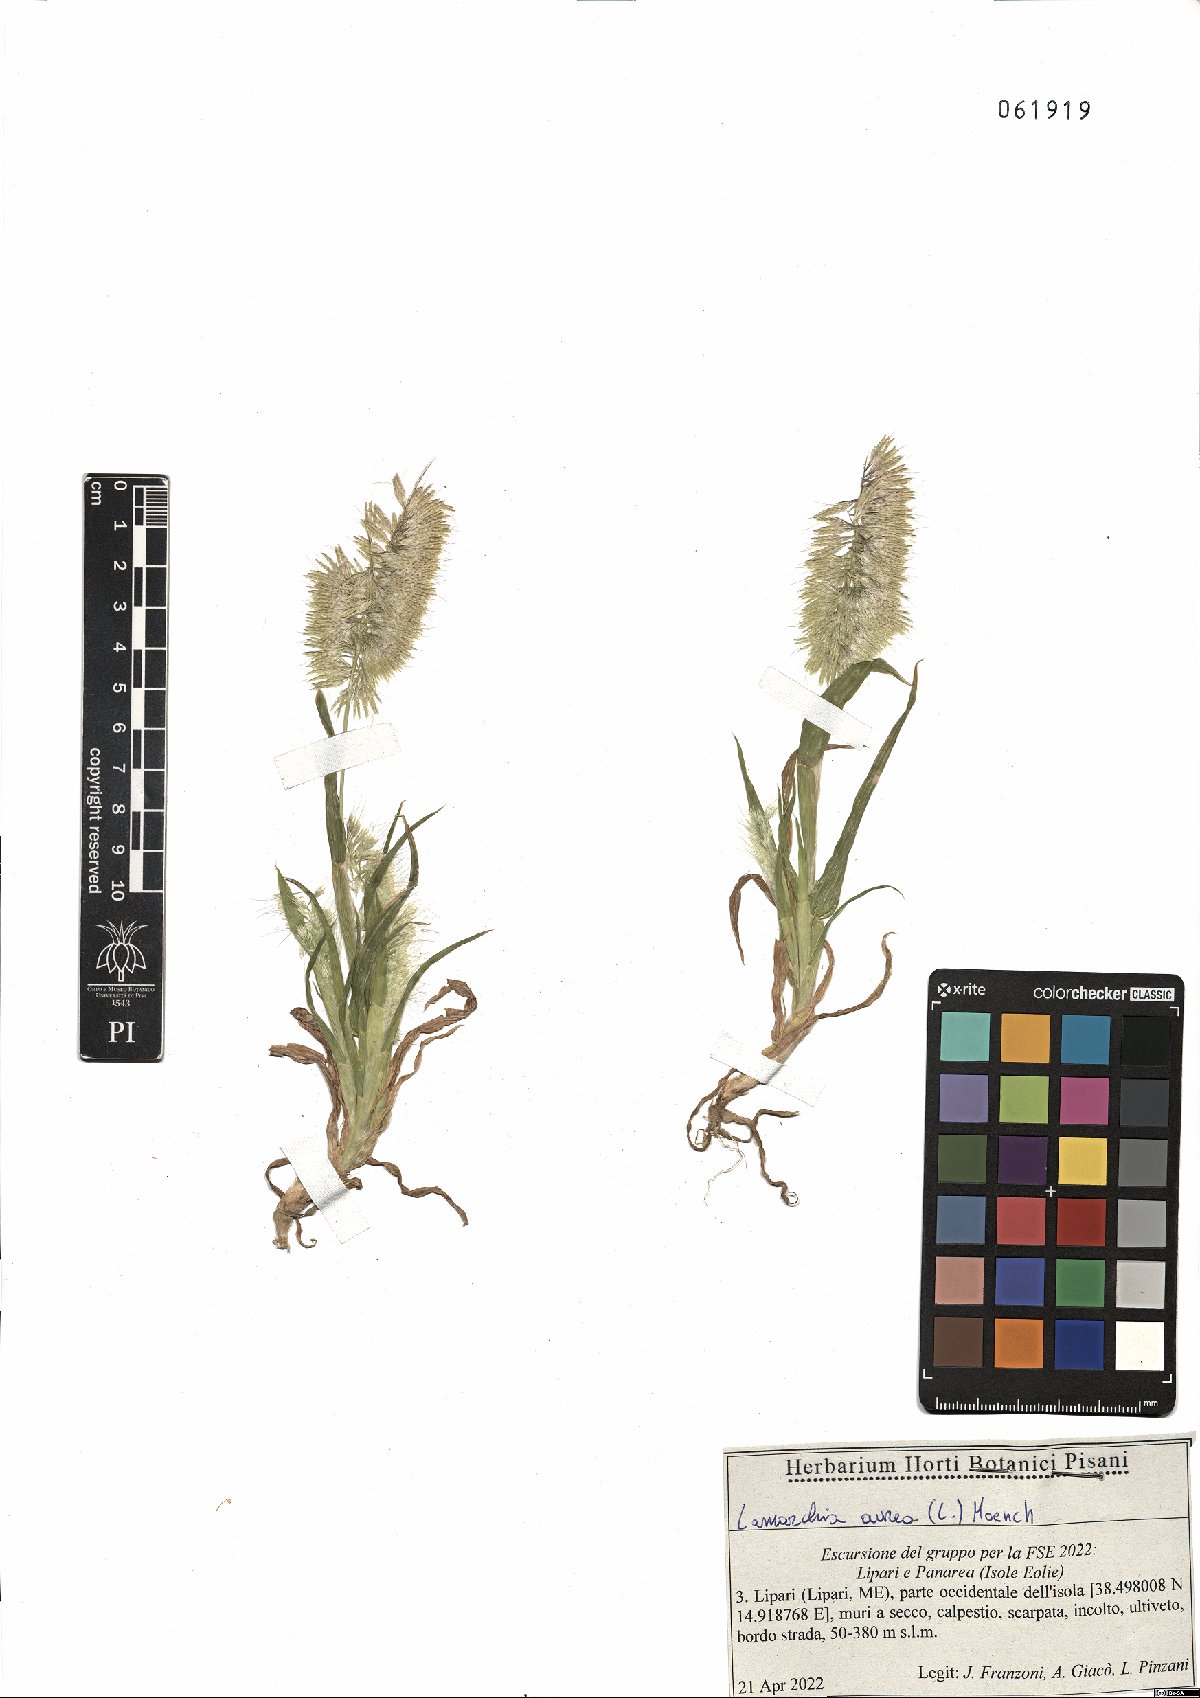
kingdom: Plantae
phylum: Tracheophyta
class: Liliopsida
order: Poales
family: Poaceae
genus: Lamarckia
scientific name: Lamarckia aurea
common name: Golden dog's-tail
